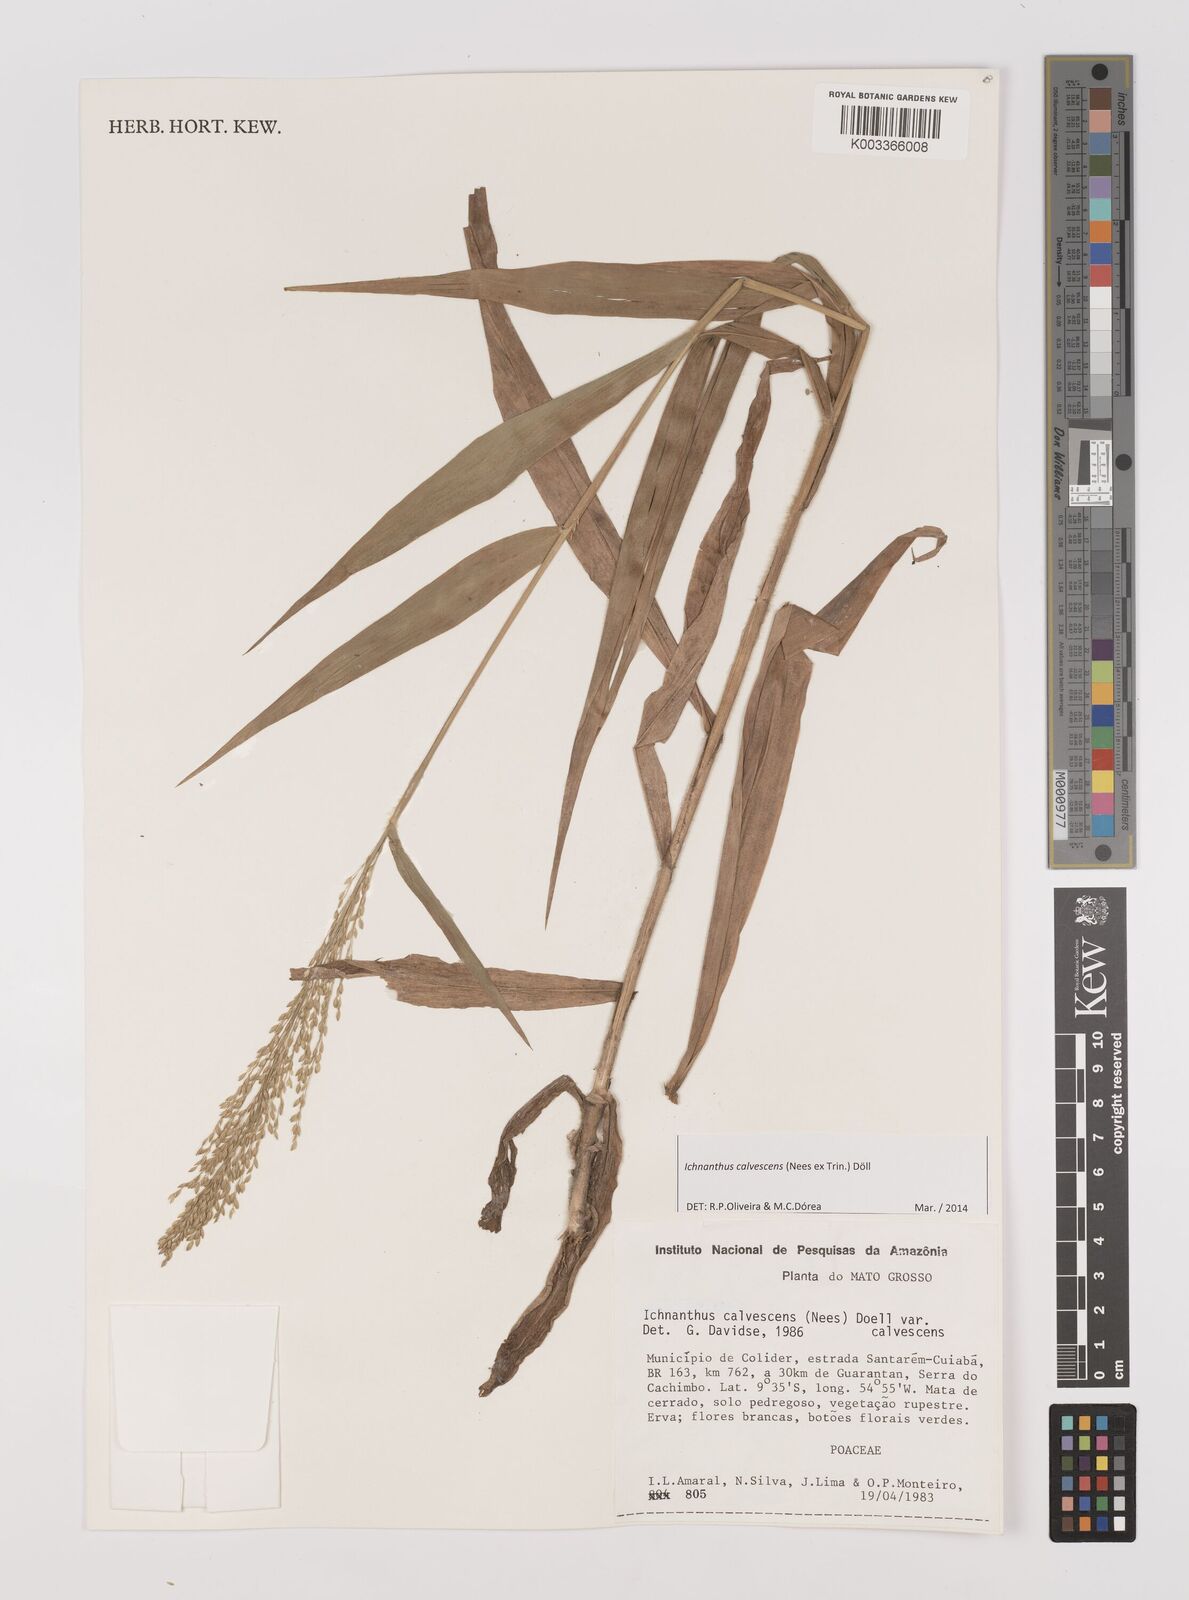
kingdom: Plantae
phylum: Tracheophyta
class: Liliopsida
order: Poales
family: Poaceae
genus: Ichnanthus
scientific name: Ichnanthus calvescens
